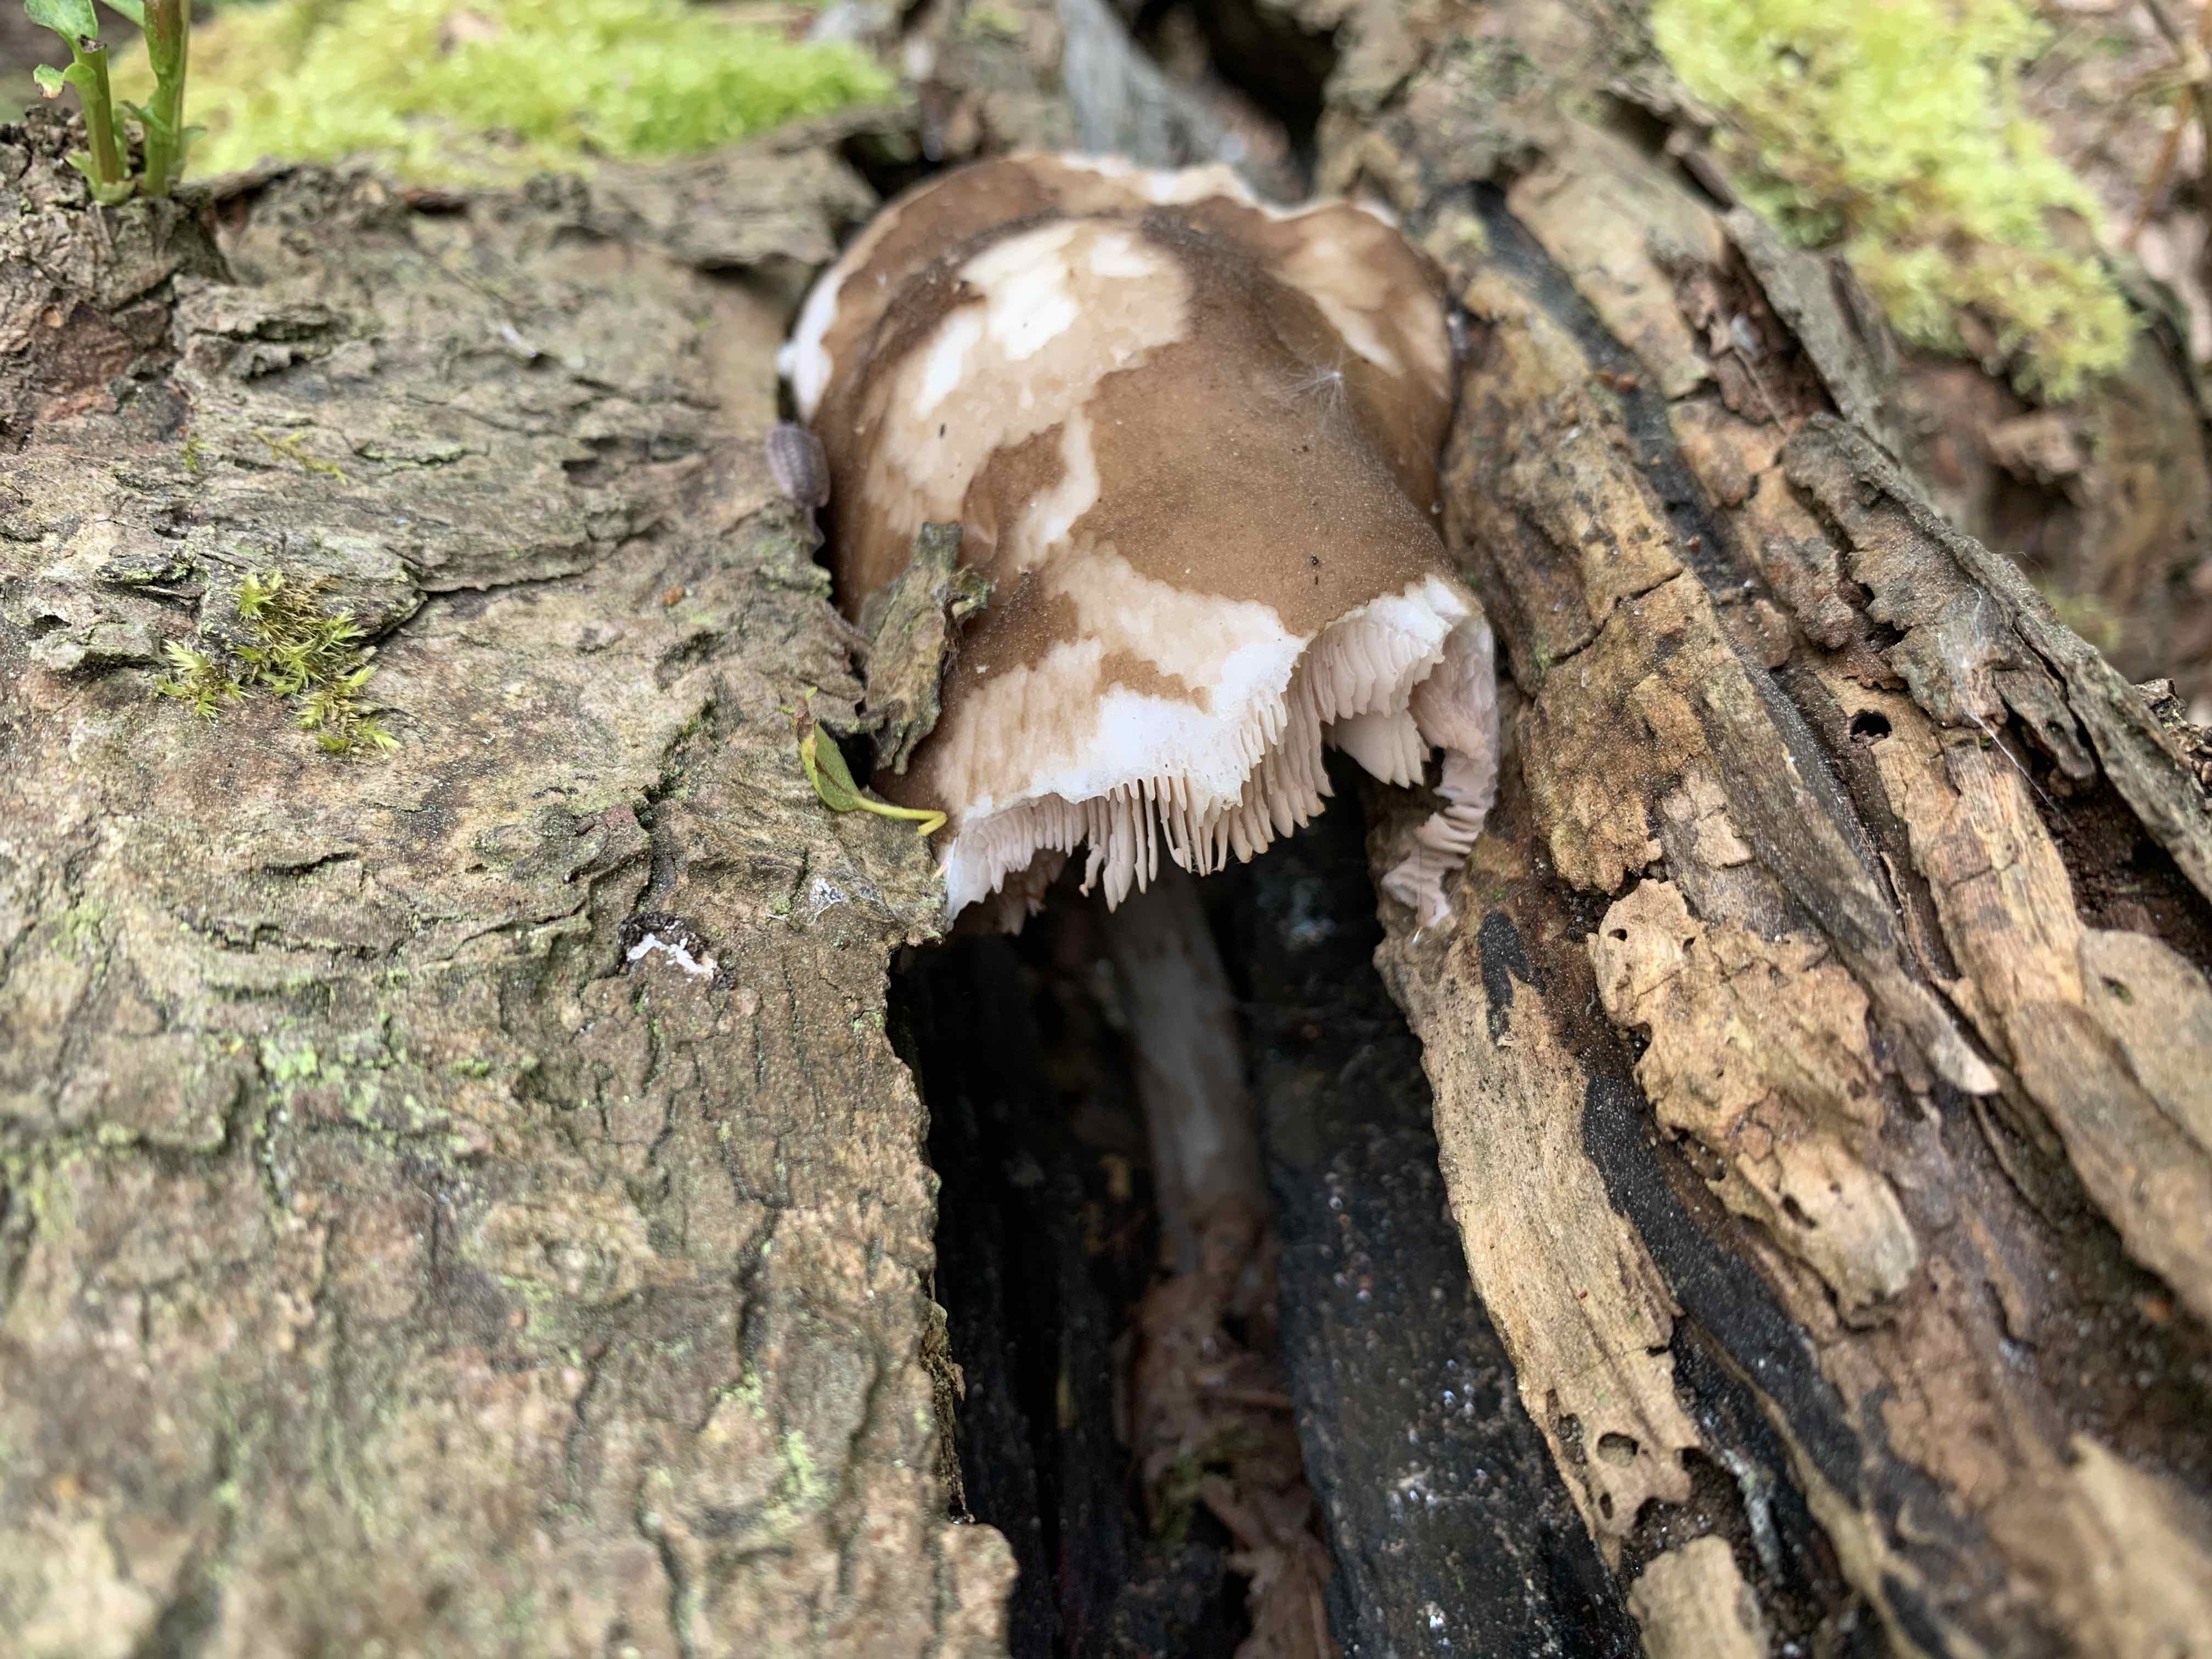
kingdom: Fungi
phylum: Basidiomycota
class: Agaricomycetes
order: Agaricales
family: Pluteaceae
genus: Pluteus
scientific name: Pluteus cervinus
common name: sodfarvet skærmhat
